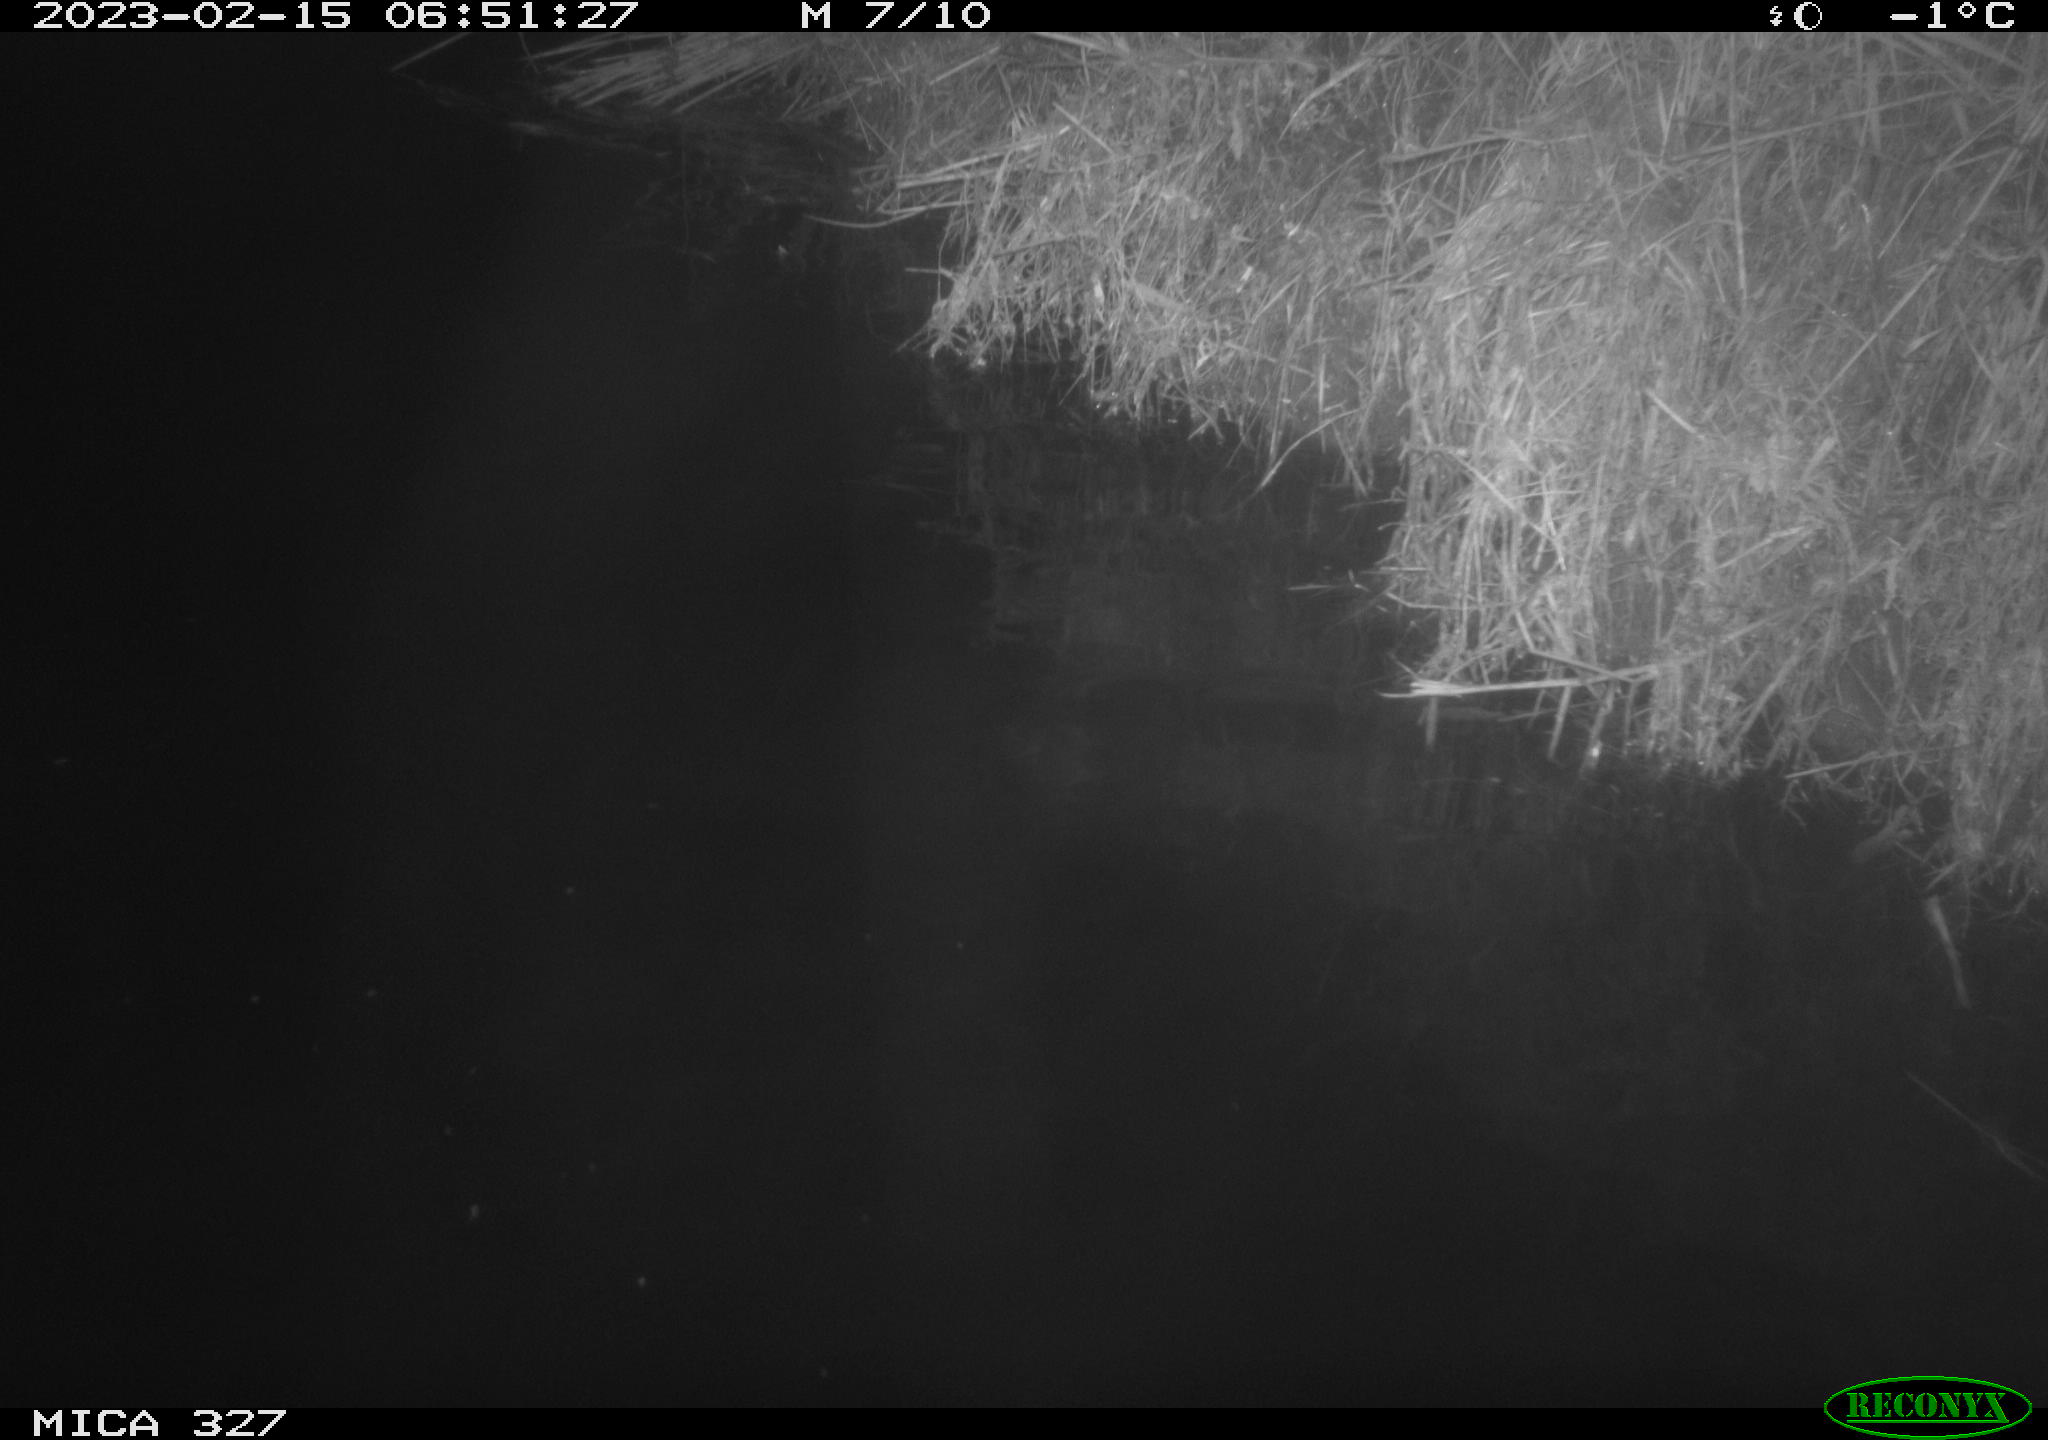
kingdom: Animalia
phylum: Chordata
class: Mammalia
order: Rodentia
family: Cricetidae
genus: Ondatra
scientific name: Ondatra zibethicus
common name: Muskrat
